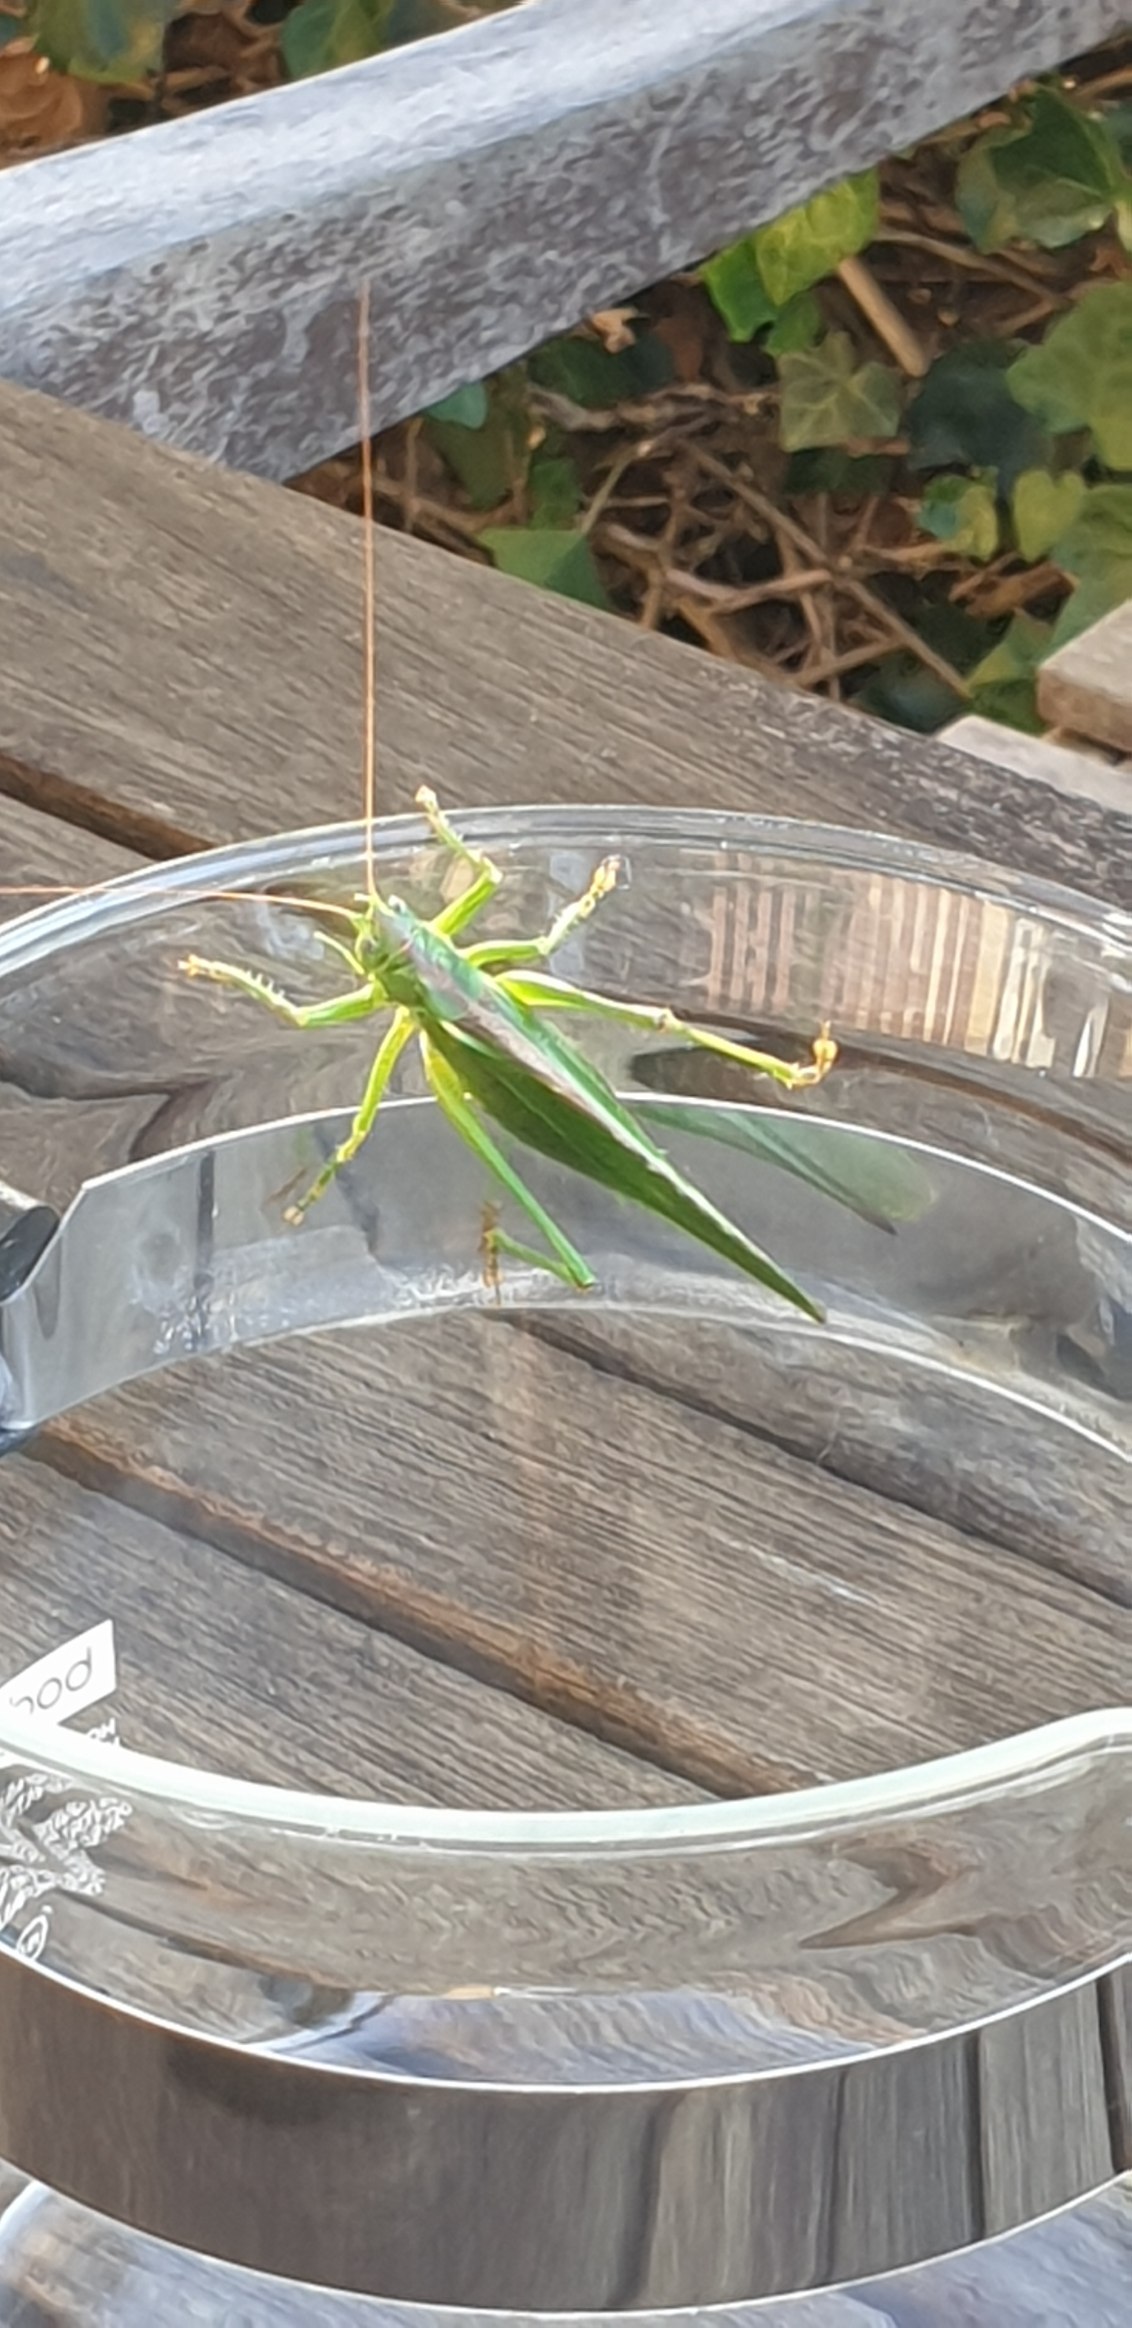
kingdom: Animalia
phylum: Arthropoda
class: Insecta
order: Orthoptera
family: Tettigoniidae
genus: Tettigonia
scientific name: Tettigonia viridissima
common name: Stor grøn løvgræshoppe
